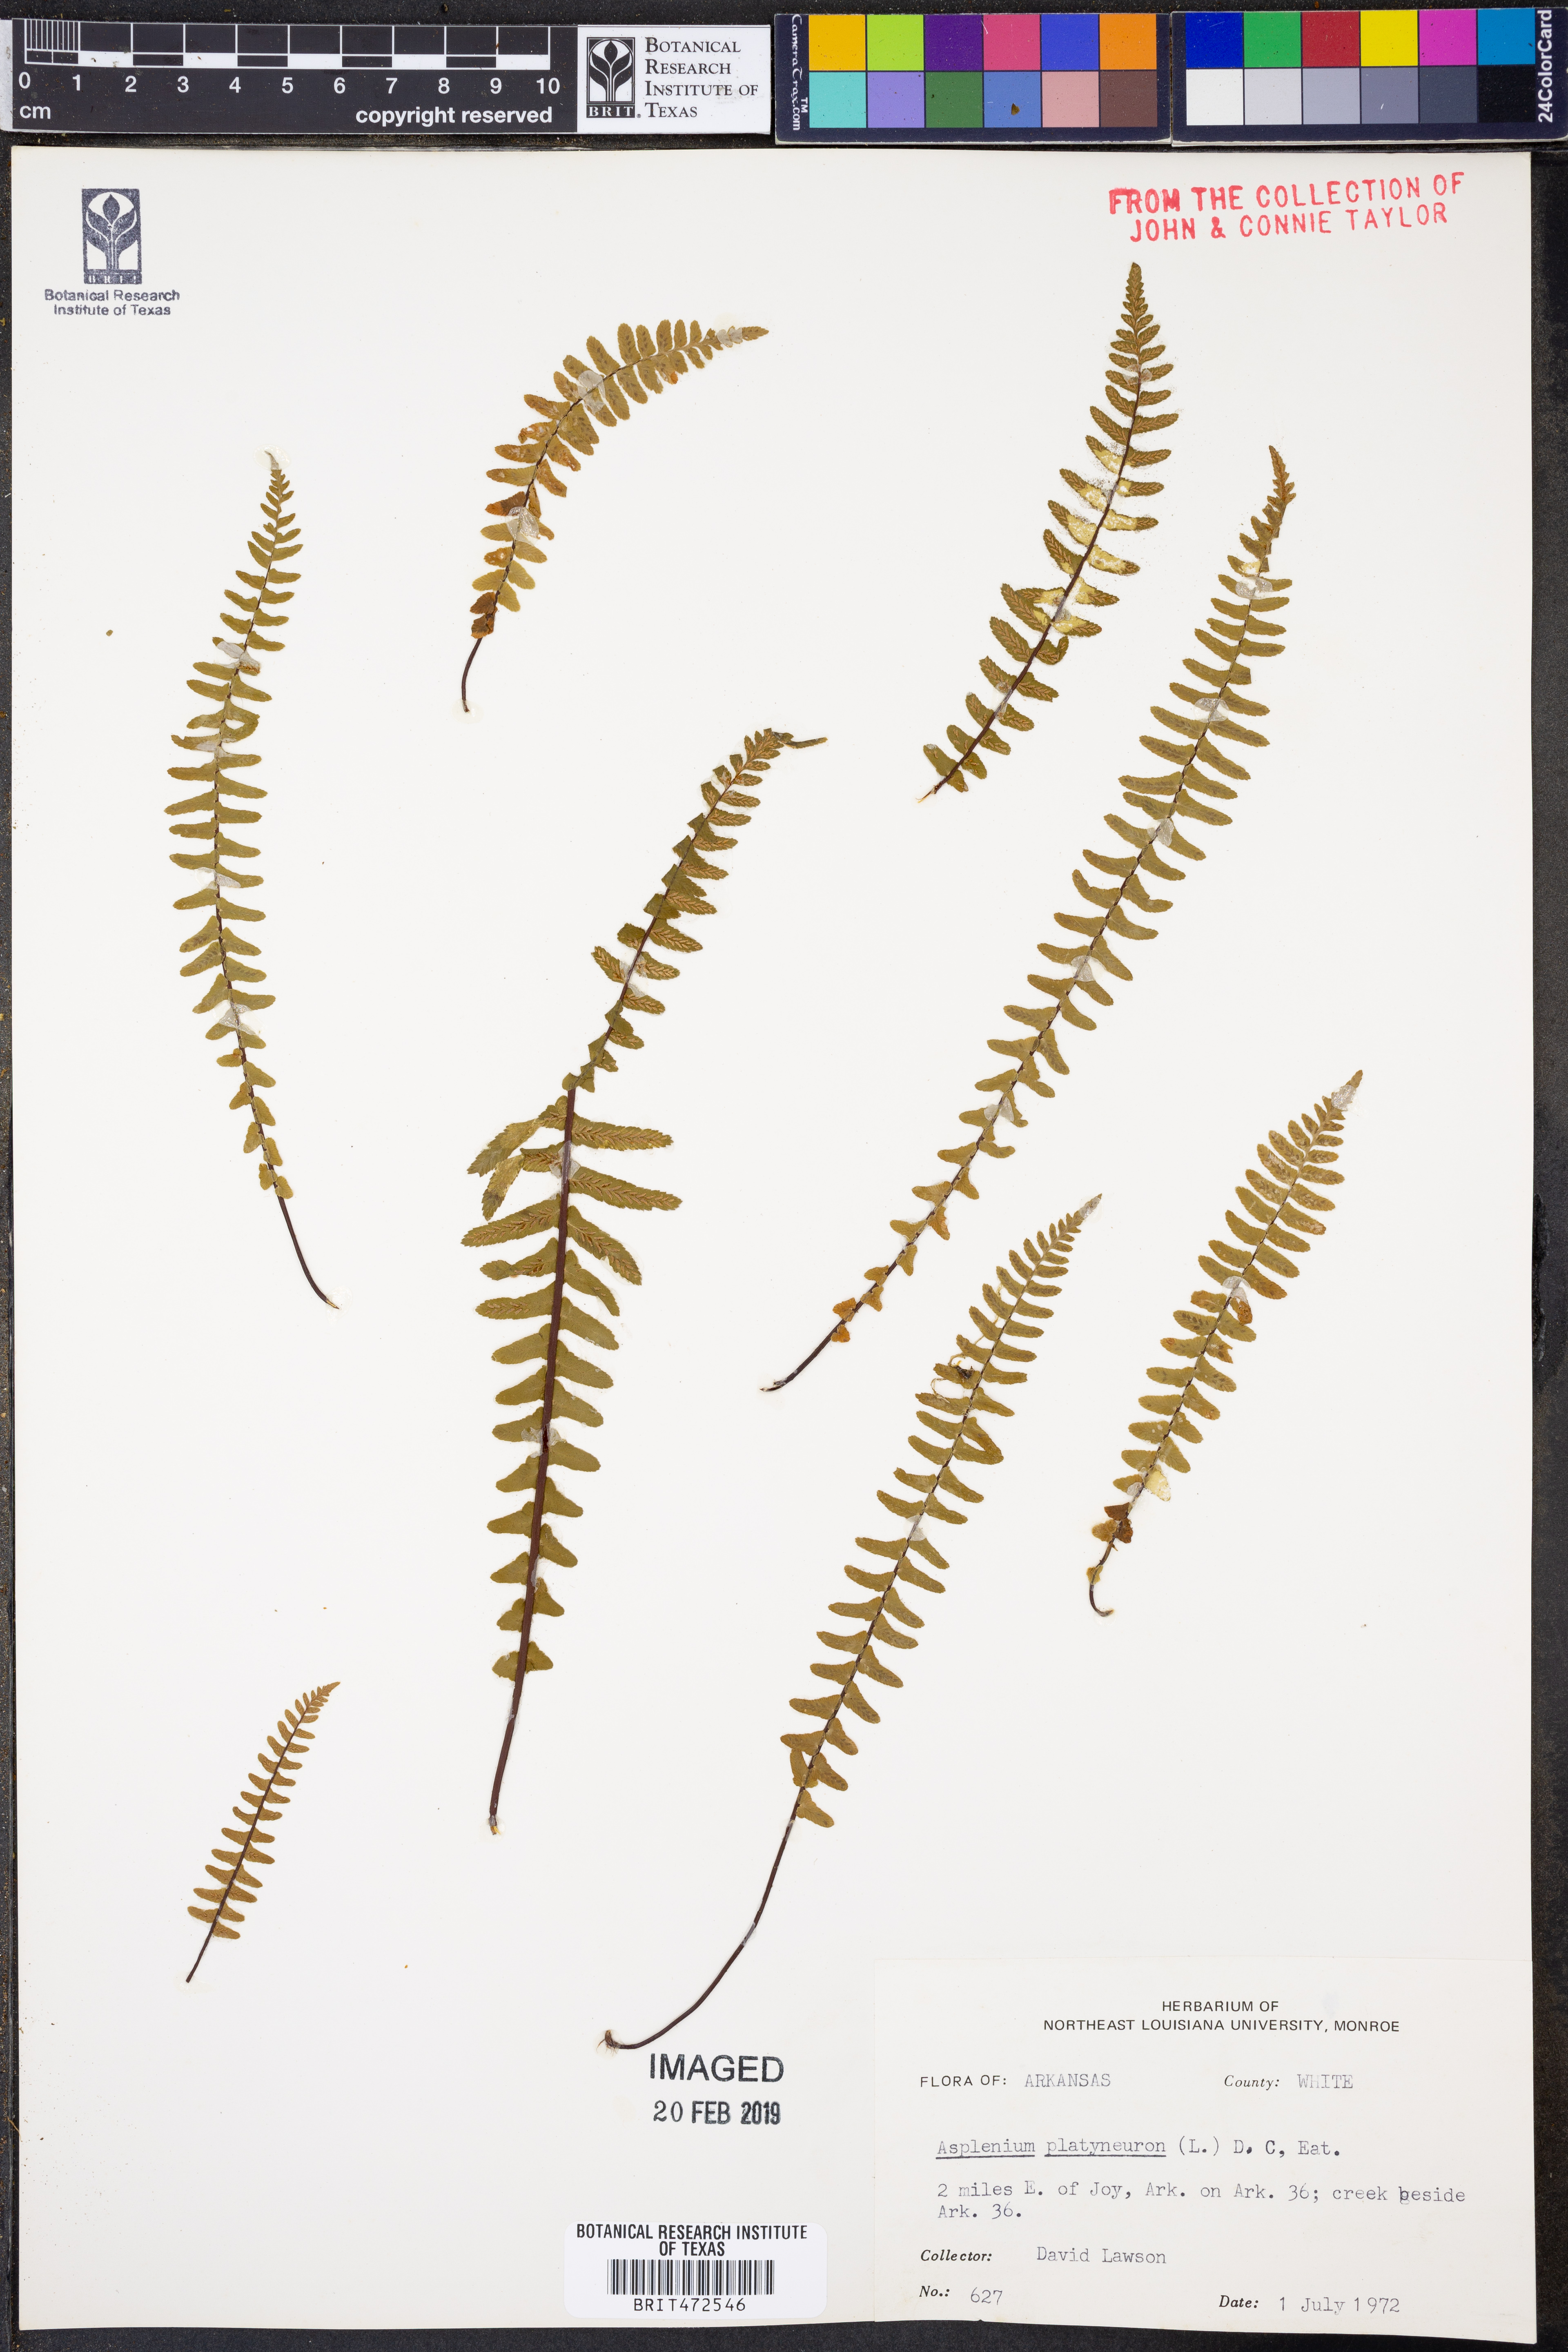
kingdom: Plantae
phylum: Tracheophyta
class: Polypodiopsida
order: Polypodiales
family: Aspleniaceae
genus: Asplenium
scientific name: Asplenium platyneuron
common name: Ebony spleenwort
